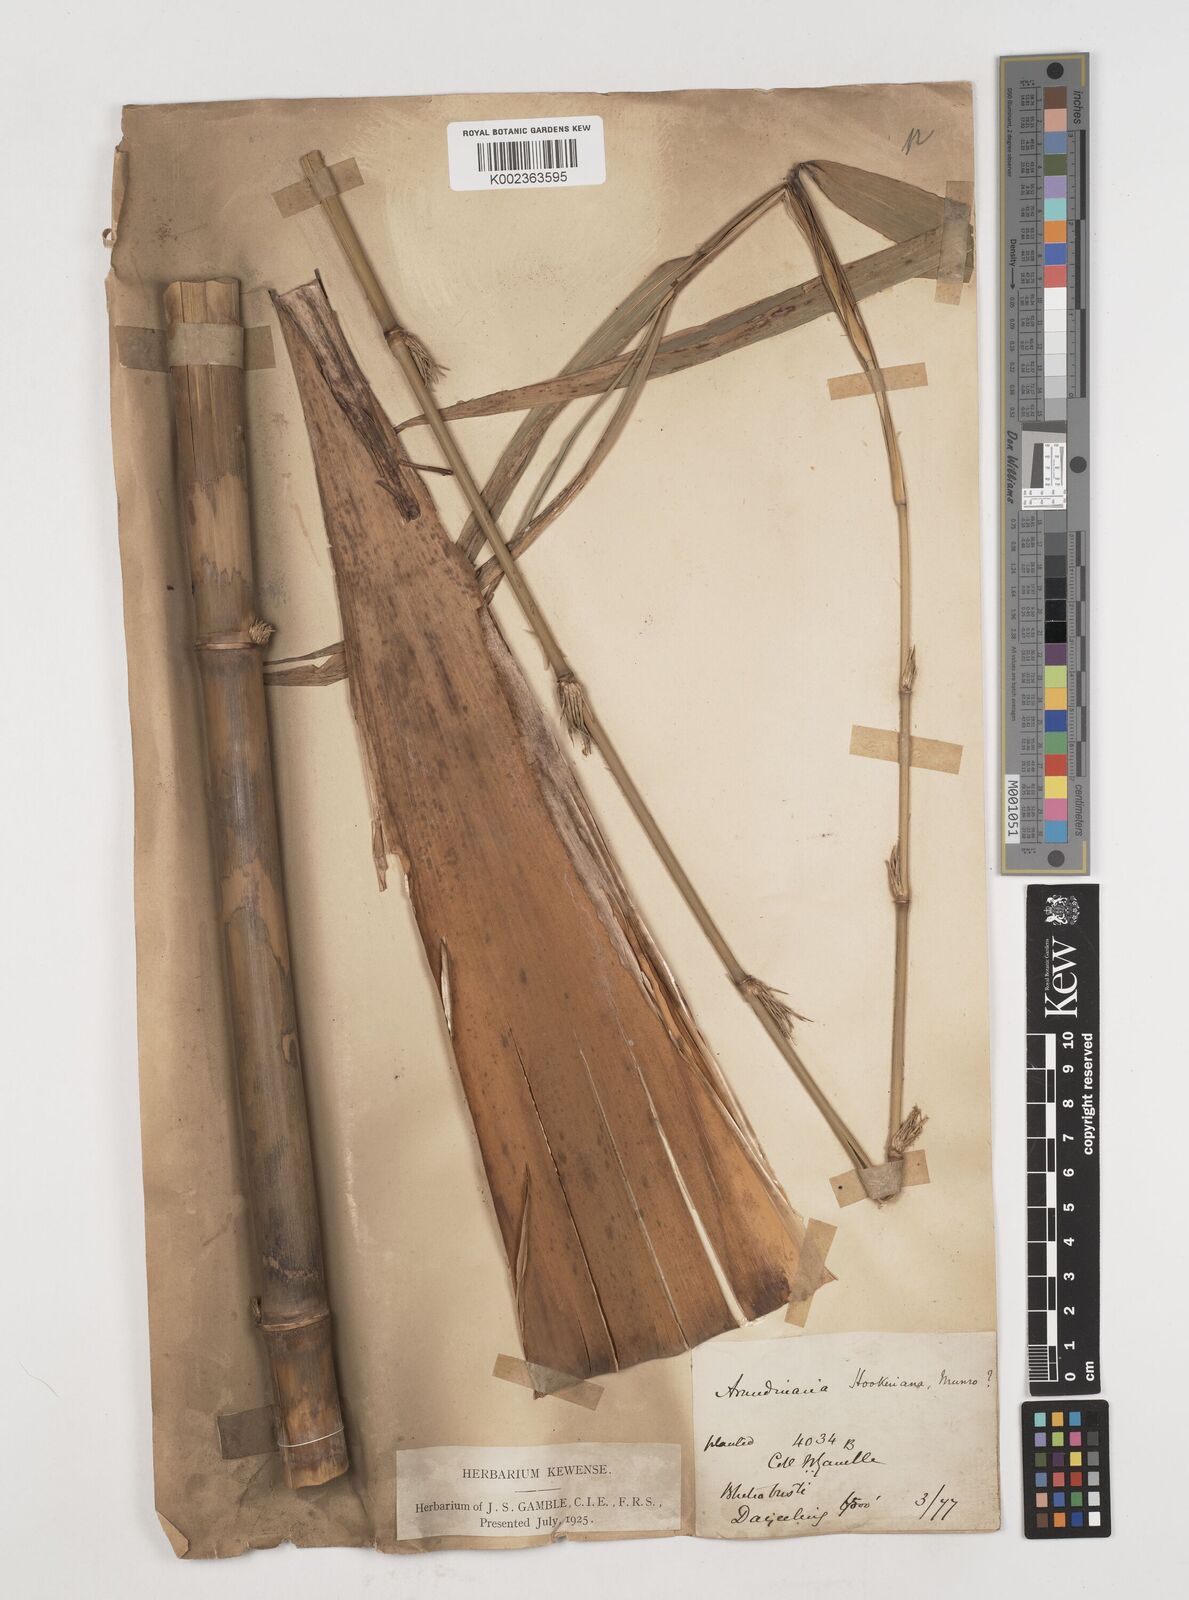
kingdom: Plantae
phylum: Tracheophyta
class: Liliopsida
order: Poales
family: Poaceae
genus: Himalayacalamus
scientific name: Himalayacalamus hookerianus
